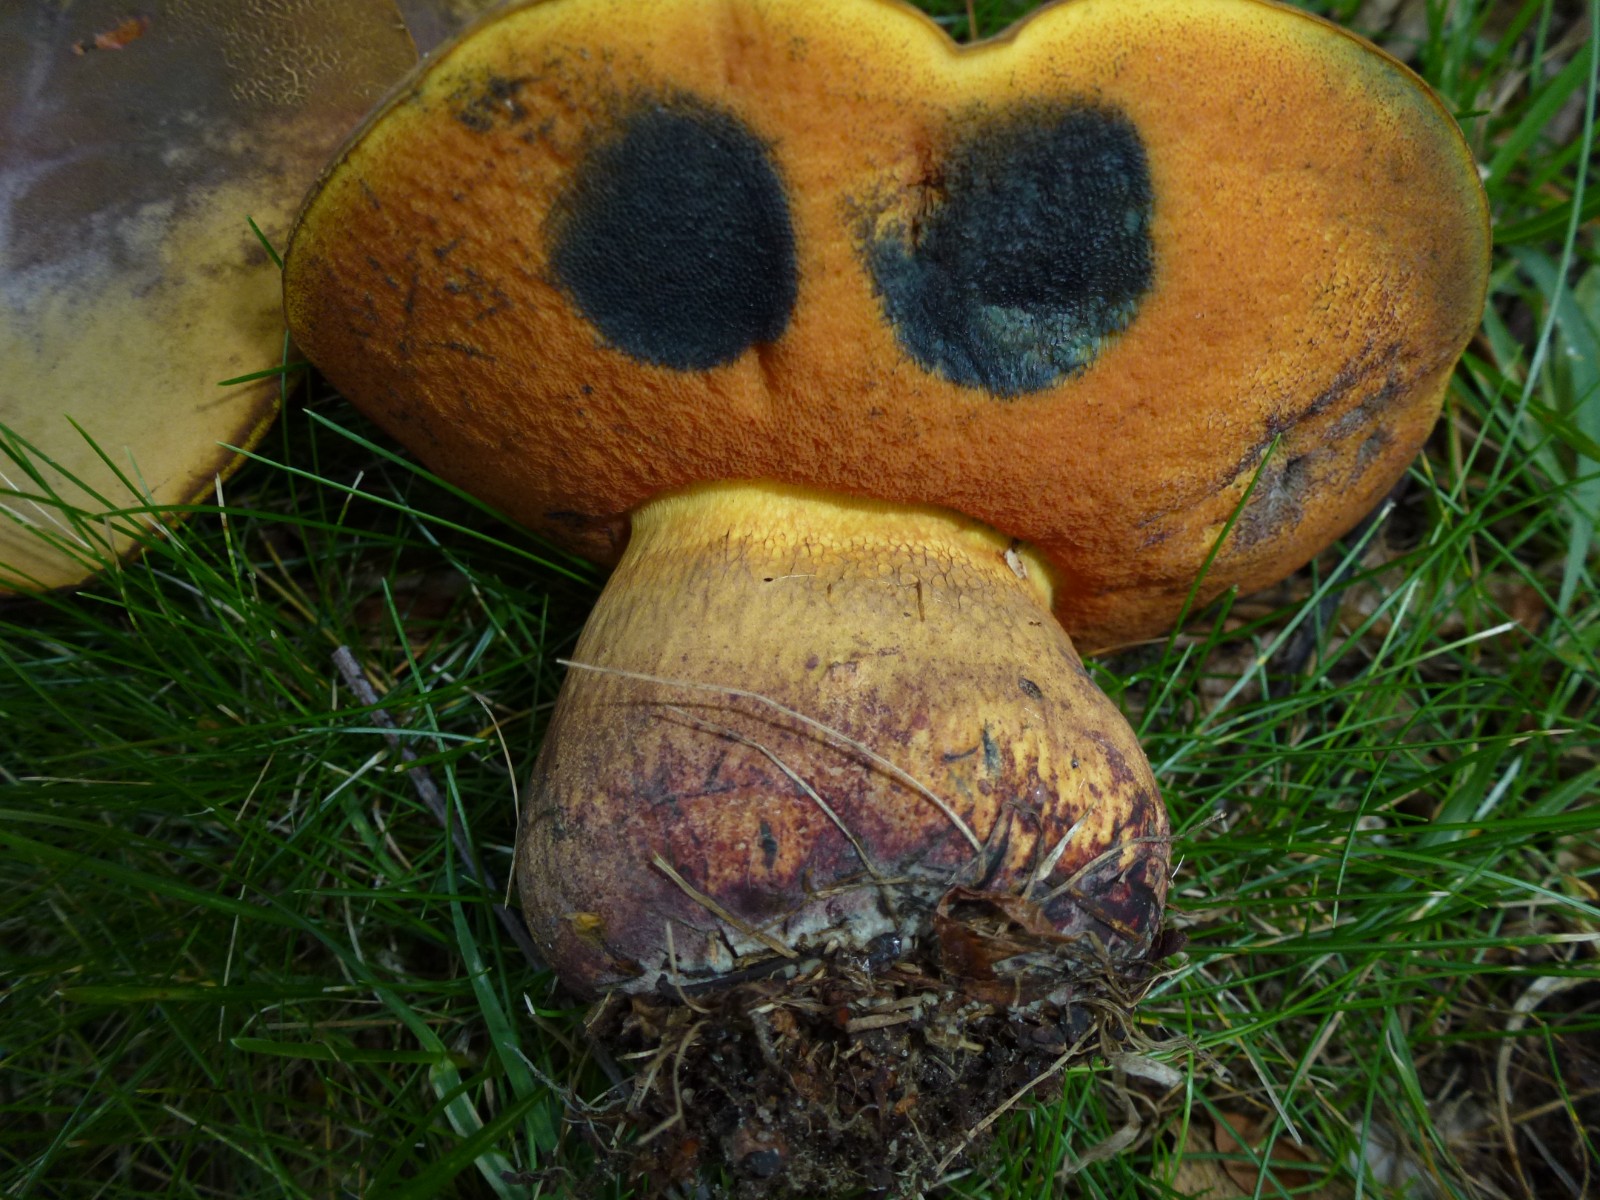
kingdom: Fungi
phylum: Basidiomycota
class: Agaricomycetes
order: Boletales
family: Boletaceae
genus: Suillellus
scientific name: Suillellus luridus
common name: netstokket indigorørhat
